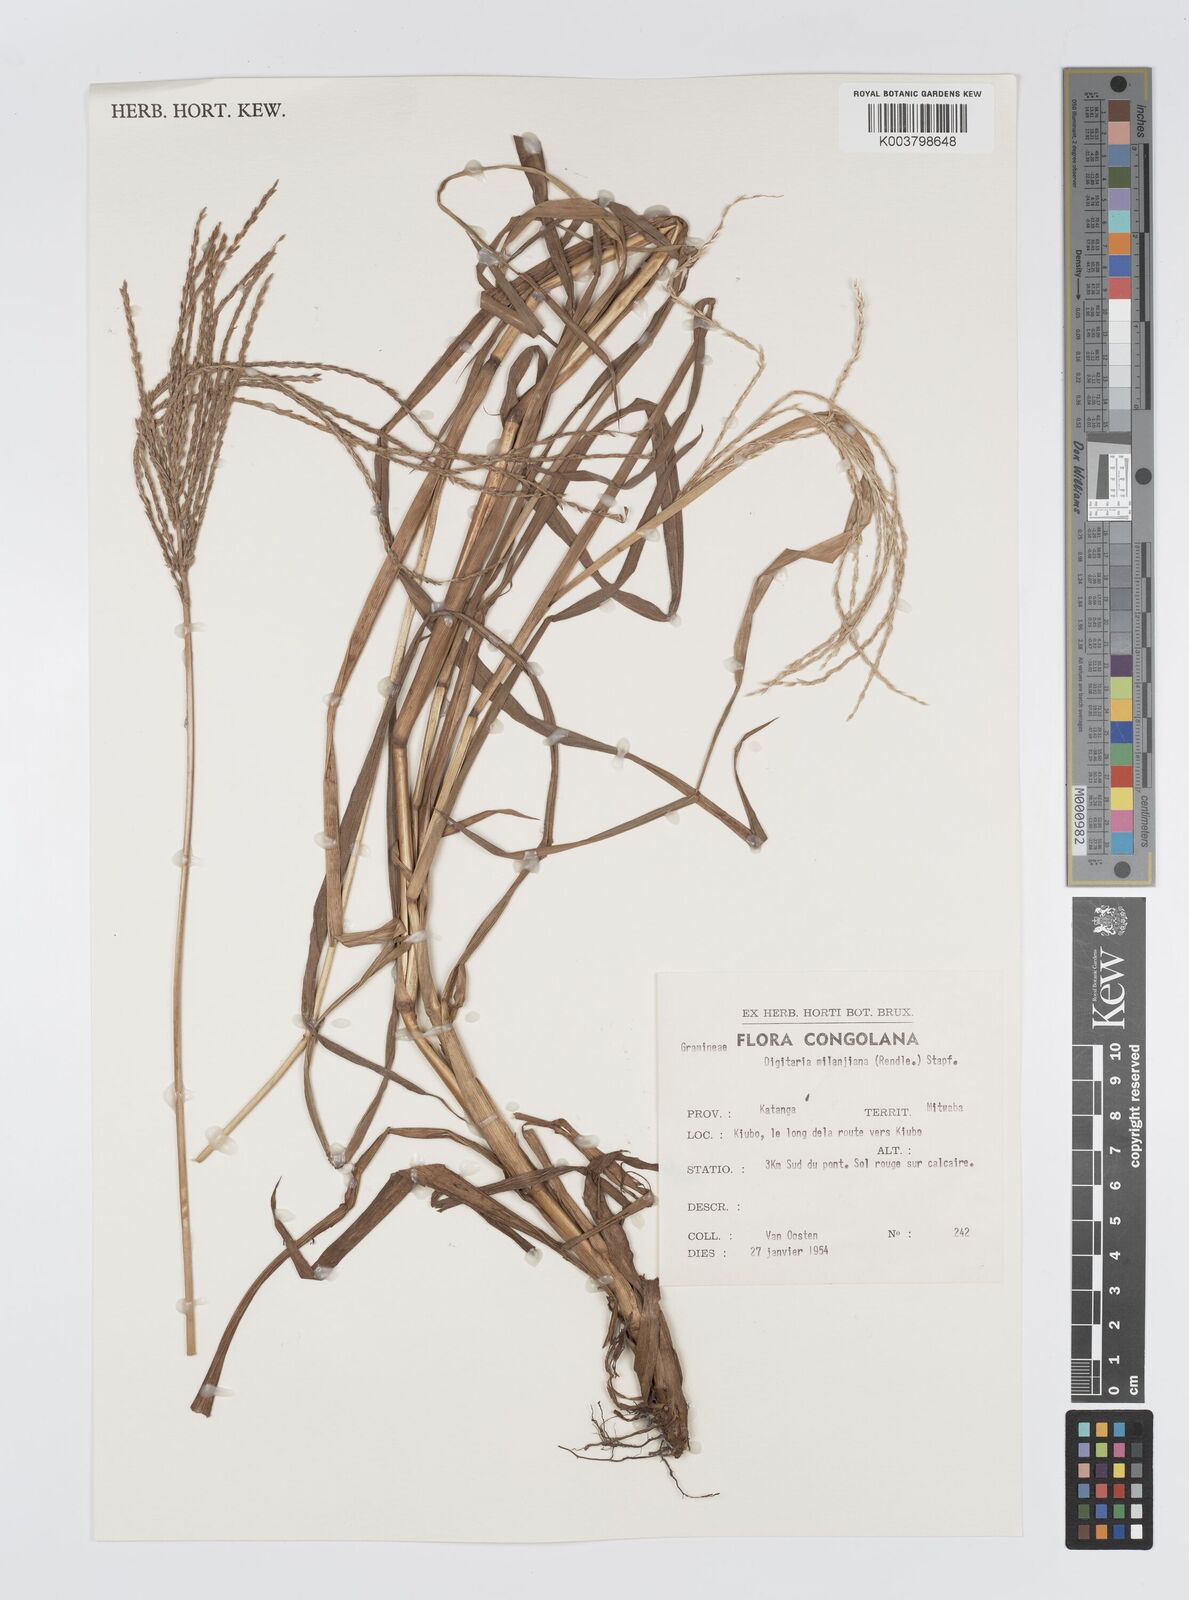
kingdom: Plantae
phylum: Tracheophyta
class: Liliopsida
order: Poales
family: Poaceae
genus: Digitaria
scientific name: Digitaria milanjiana
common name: Madagascar crabgrass
